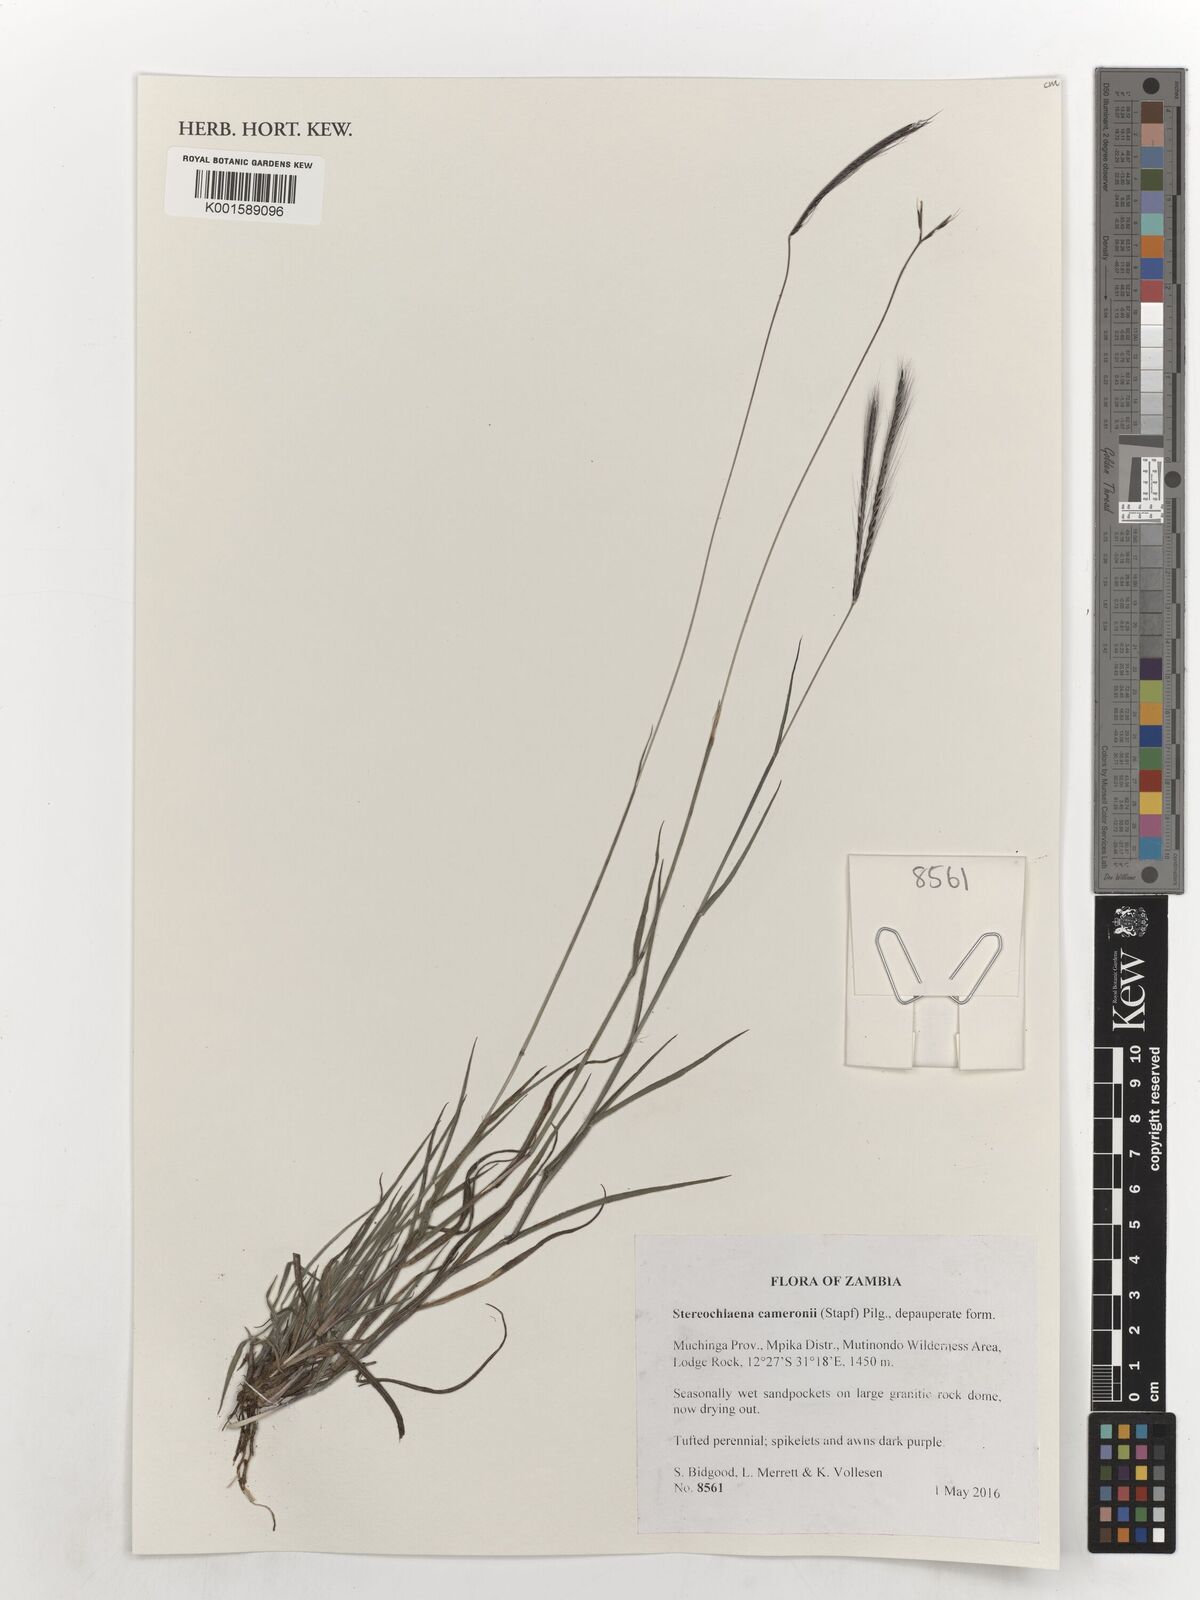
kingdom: Plantae
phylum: Tracheophyta
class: Liliopsida
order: Poales
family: Poaceae
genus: Stereochlaena
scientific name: Stereochlaena cameronii
